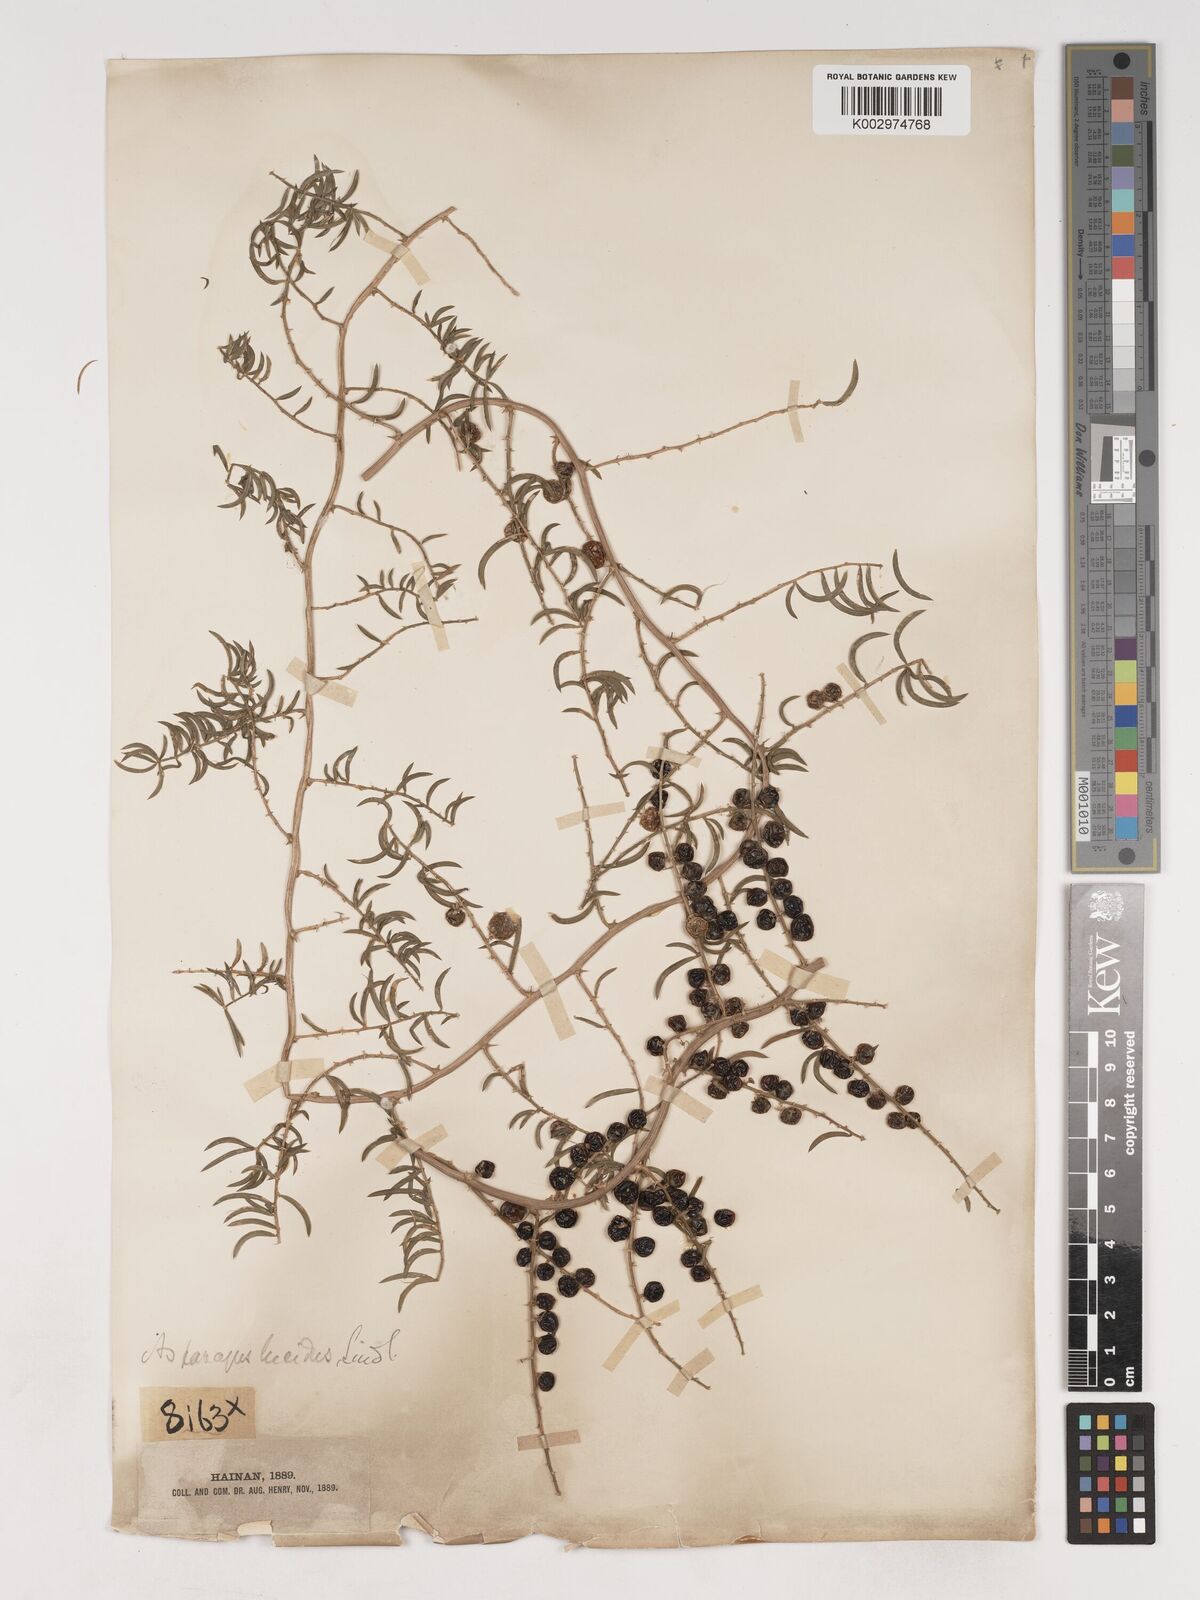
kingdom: Plantae
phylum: Tracheophyta
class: Liliopsida
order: Asparagales
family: Asparagaceae
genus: Asparagus
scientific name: Asparagus cochinchinensis
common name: Chinese asparagus
